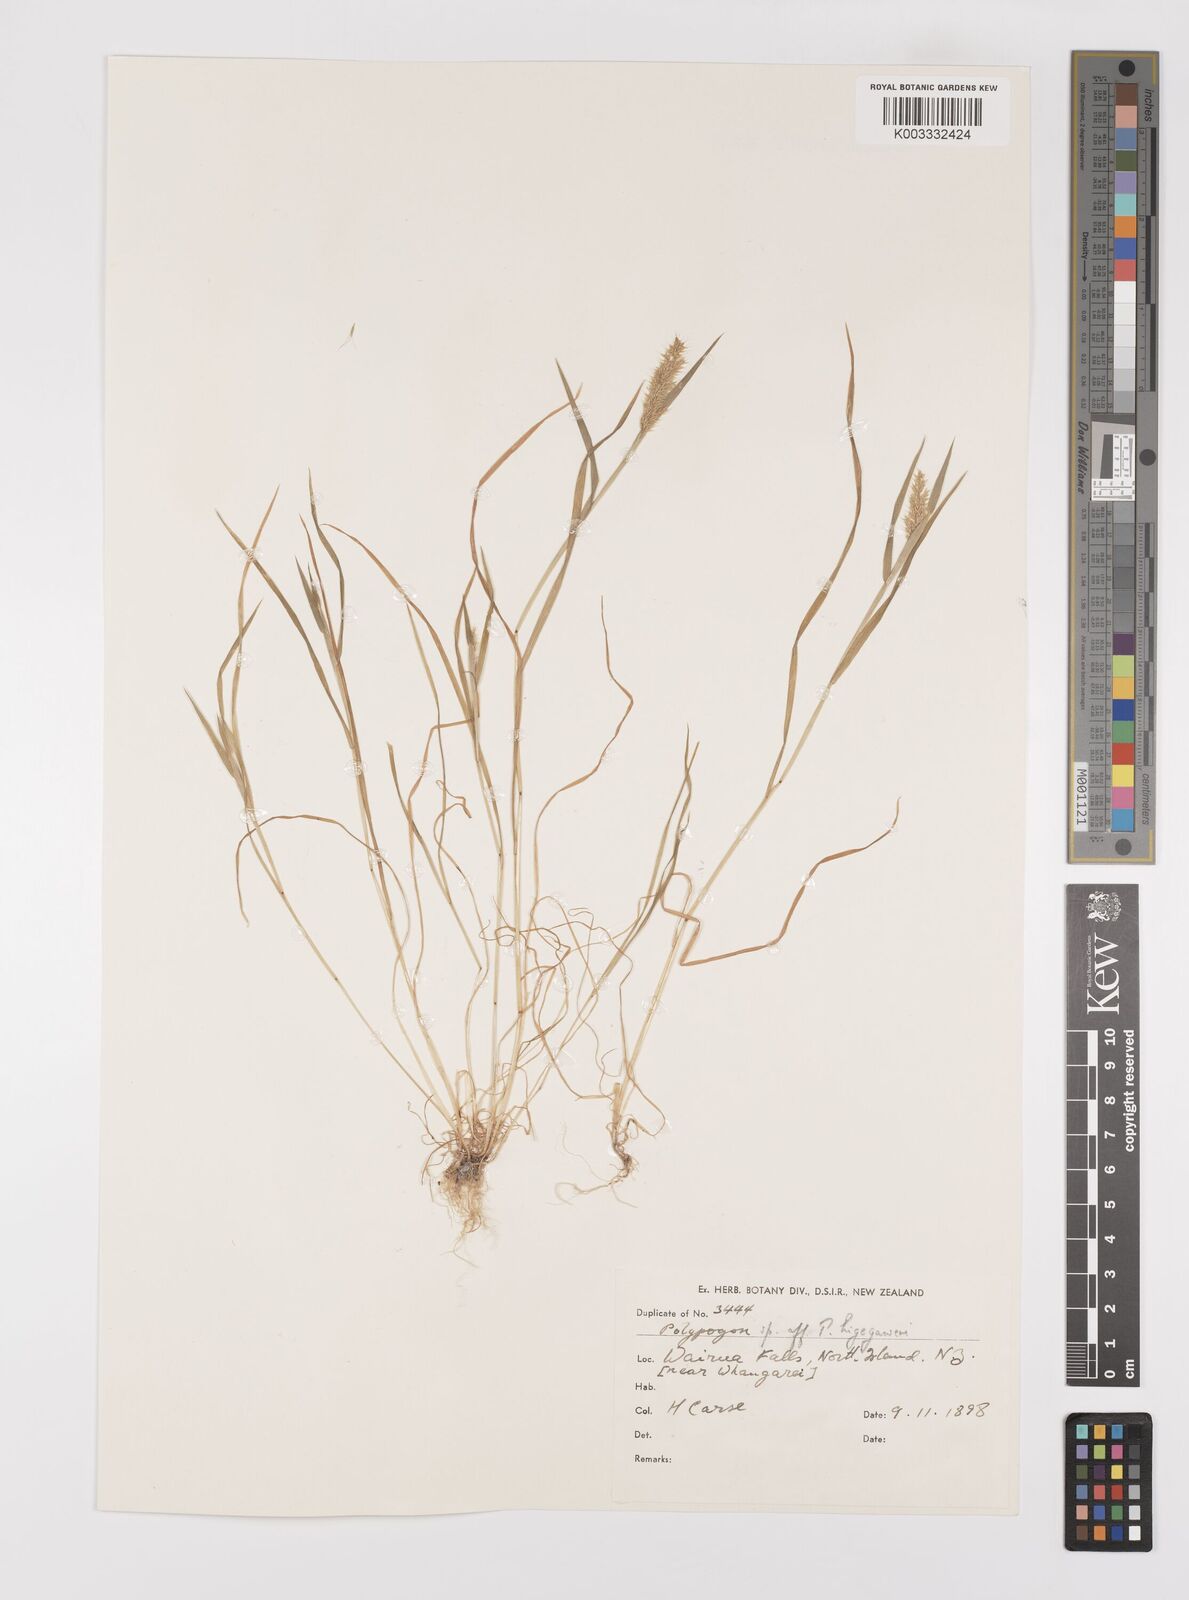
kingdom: Plantae
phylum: Tracheophyta
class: Liliopsida
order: Poales
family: Poaceae
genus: Polypogon
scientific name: Polypogon fugax
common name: Asia minor bluegrass
